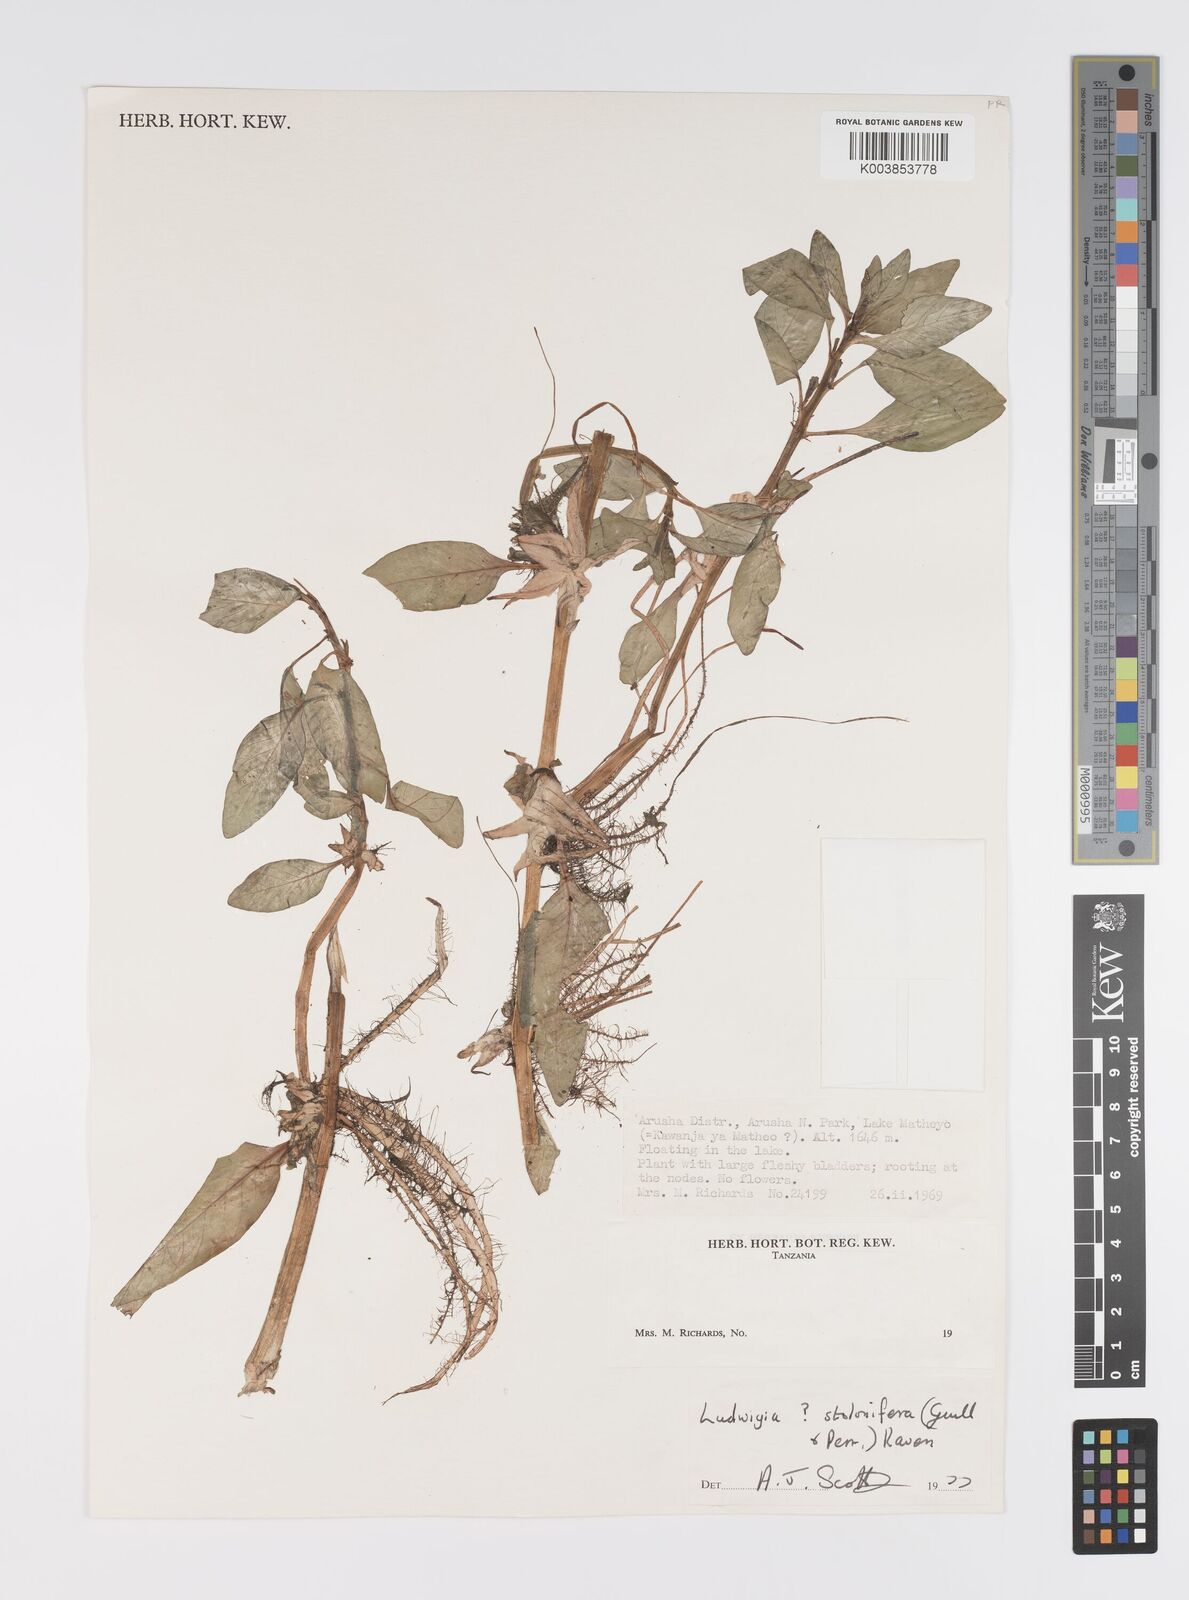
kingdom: Plantae
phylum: Tracheophyta
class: Magnoliopsida
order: Myrtales
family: Onagraceae
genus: Ludwigia
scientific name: Ludwigia repens
